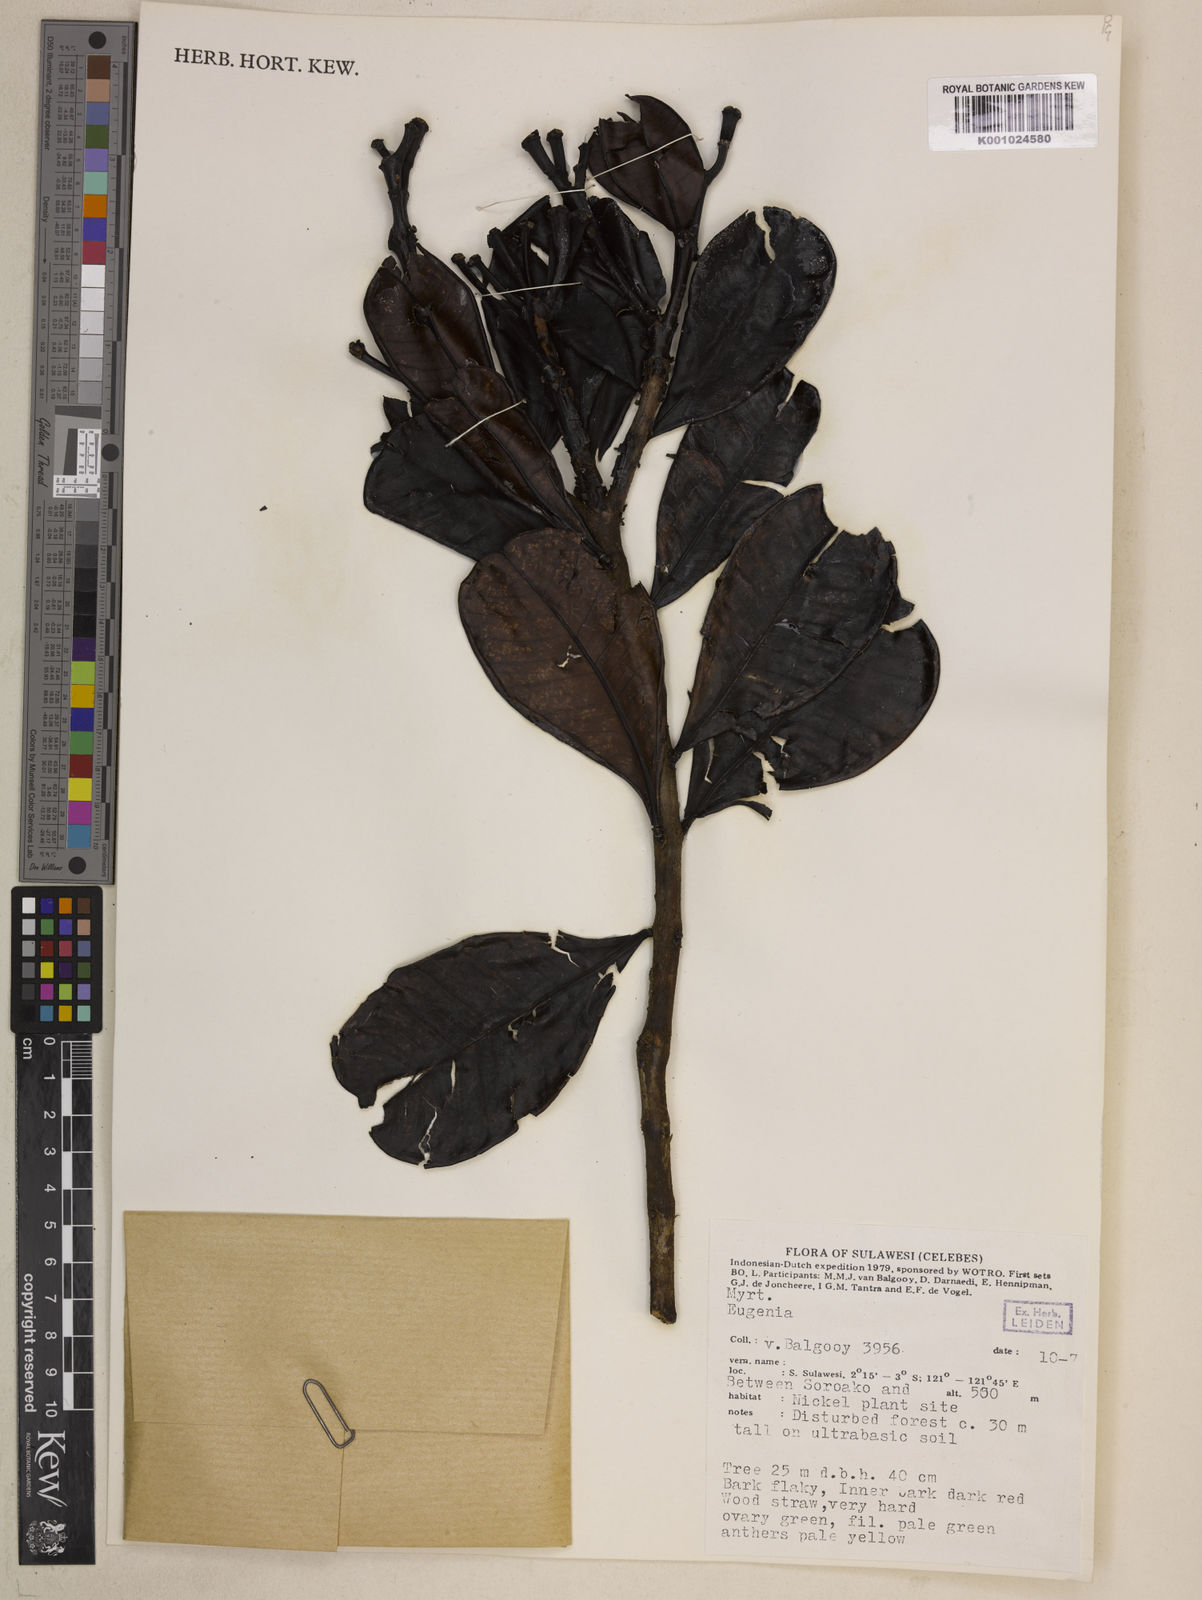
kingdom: Plantae
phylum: Tracheophyta
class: Magnoliopsida
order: Myrtales
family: Myrtaceae
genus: Syzygium
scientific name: Syzygium balgooyi
